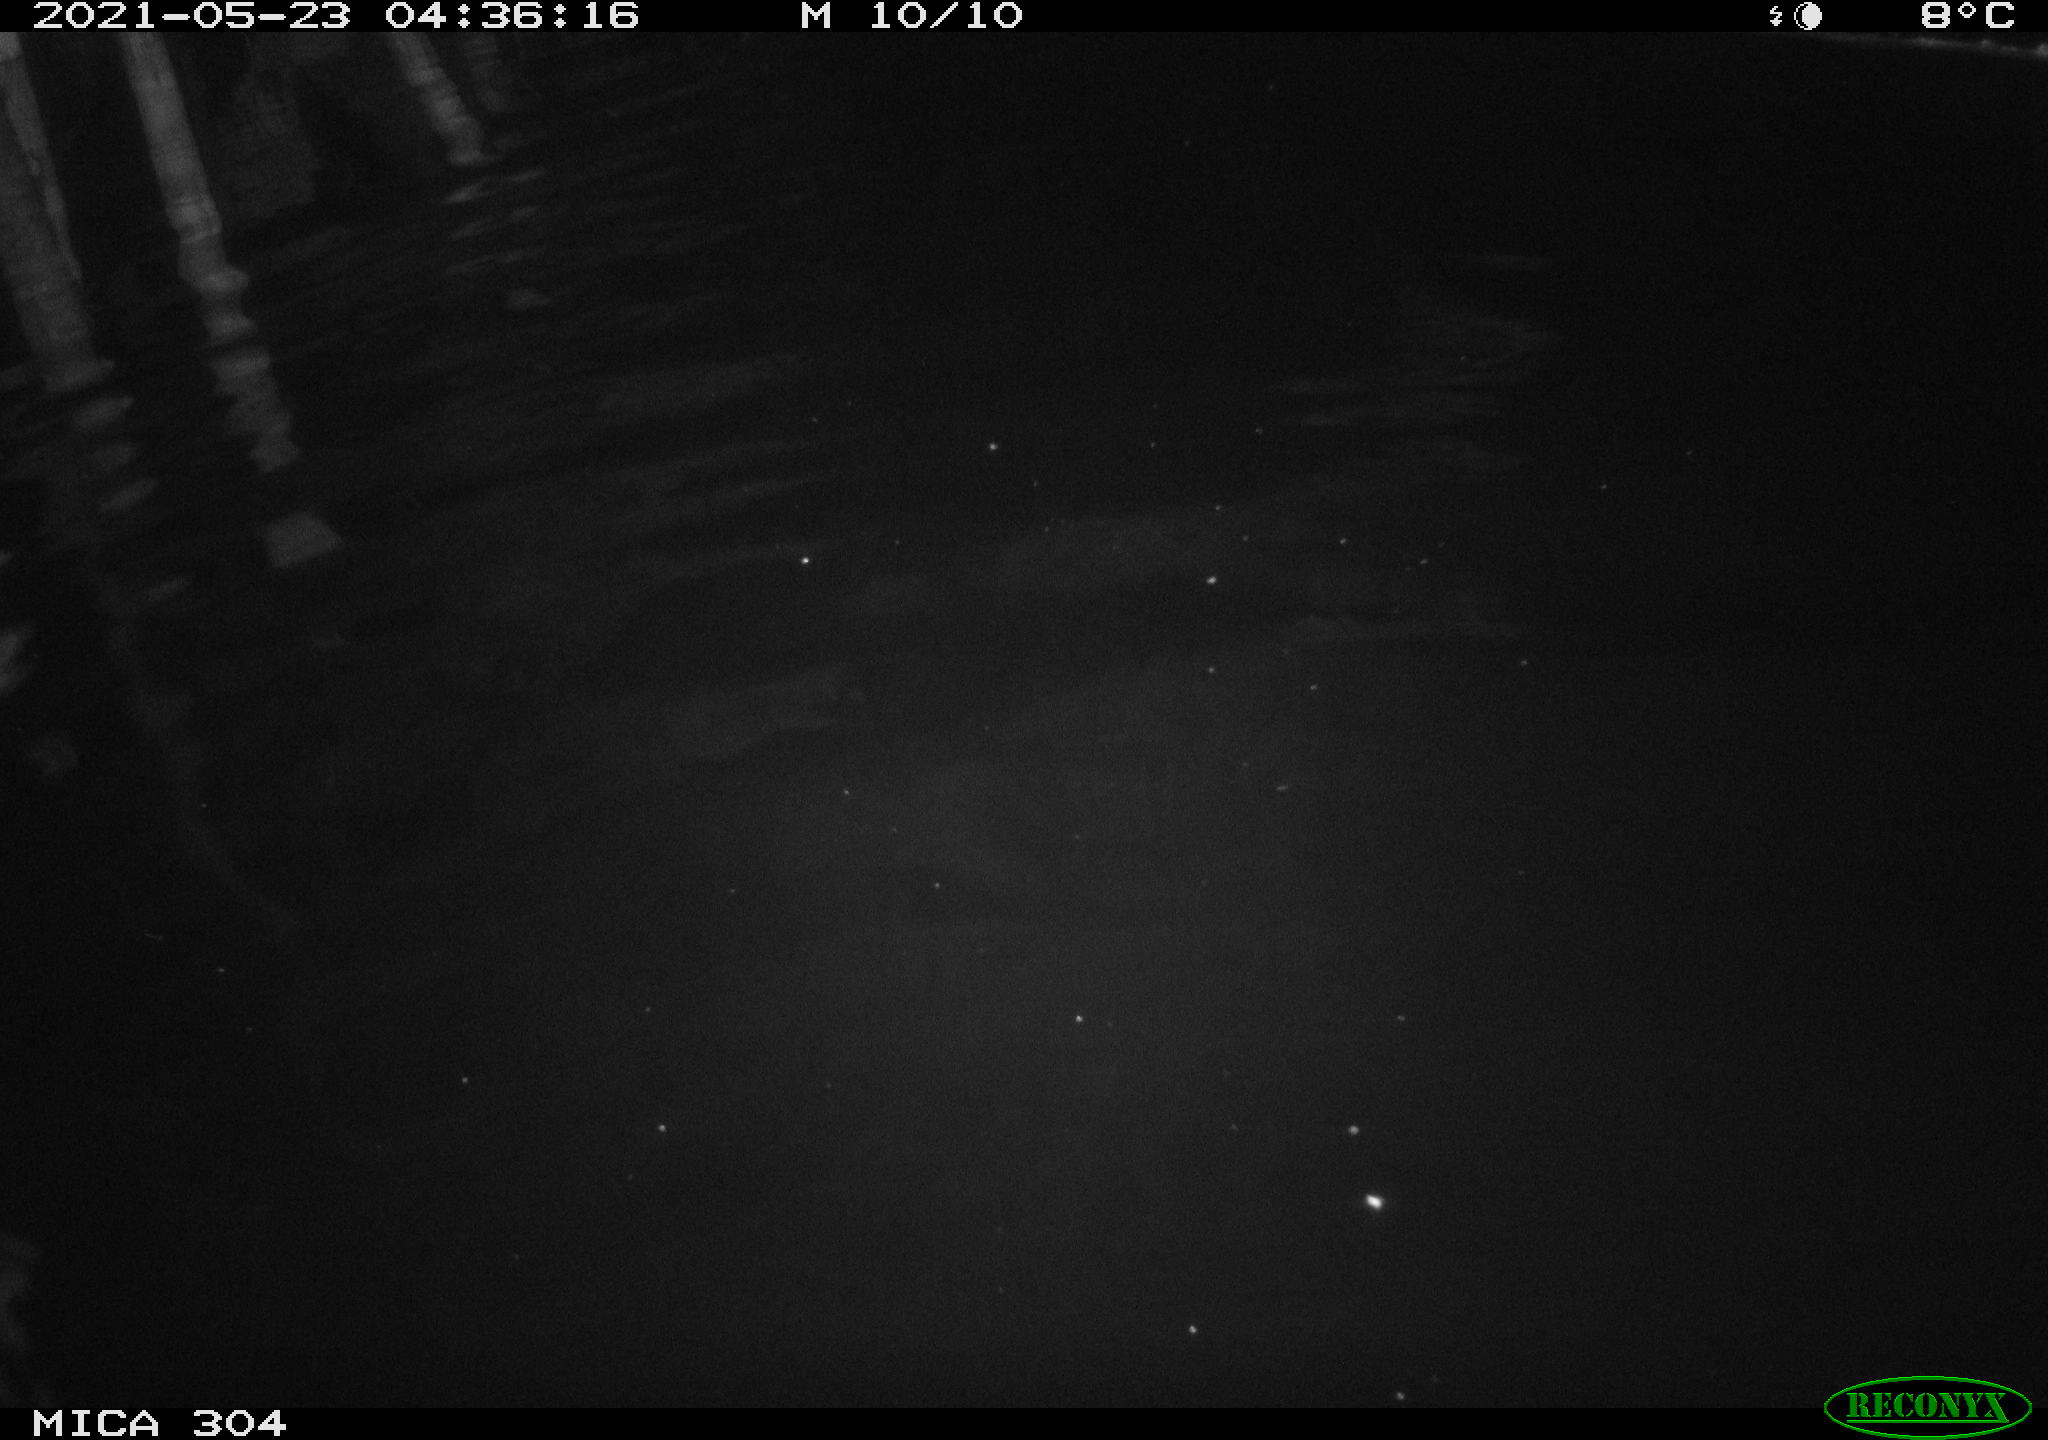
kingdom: Animalia
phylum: Chordata
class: Aves
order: Anseriformes
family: Anatidae
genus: Anas
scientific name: Anas platyrhynchos
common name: Mallard
